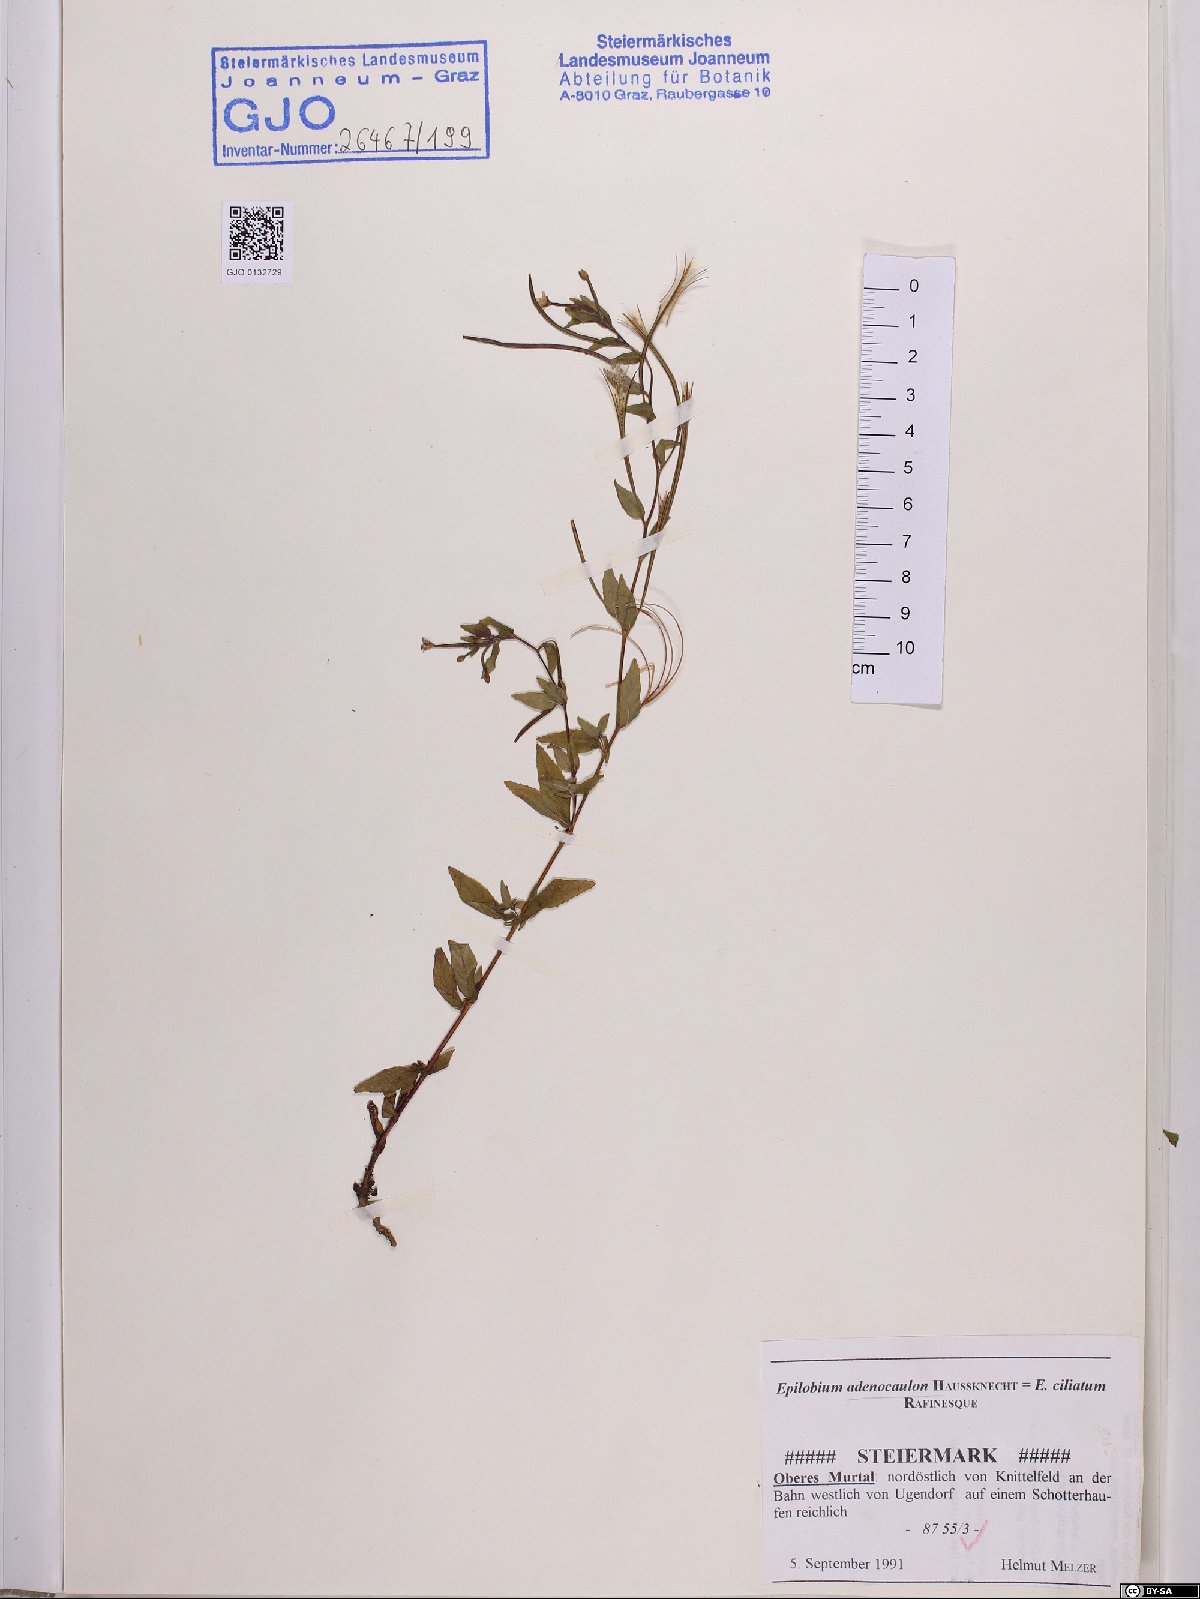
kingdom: Plantae
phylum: Tracheophyta
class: Magnoliopsida
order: Myrtales
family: Onagraceae
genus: Epilobium
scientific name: Epilobium ciliatum
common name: American willowherb
